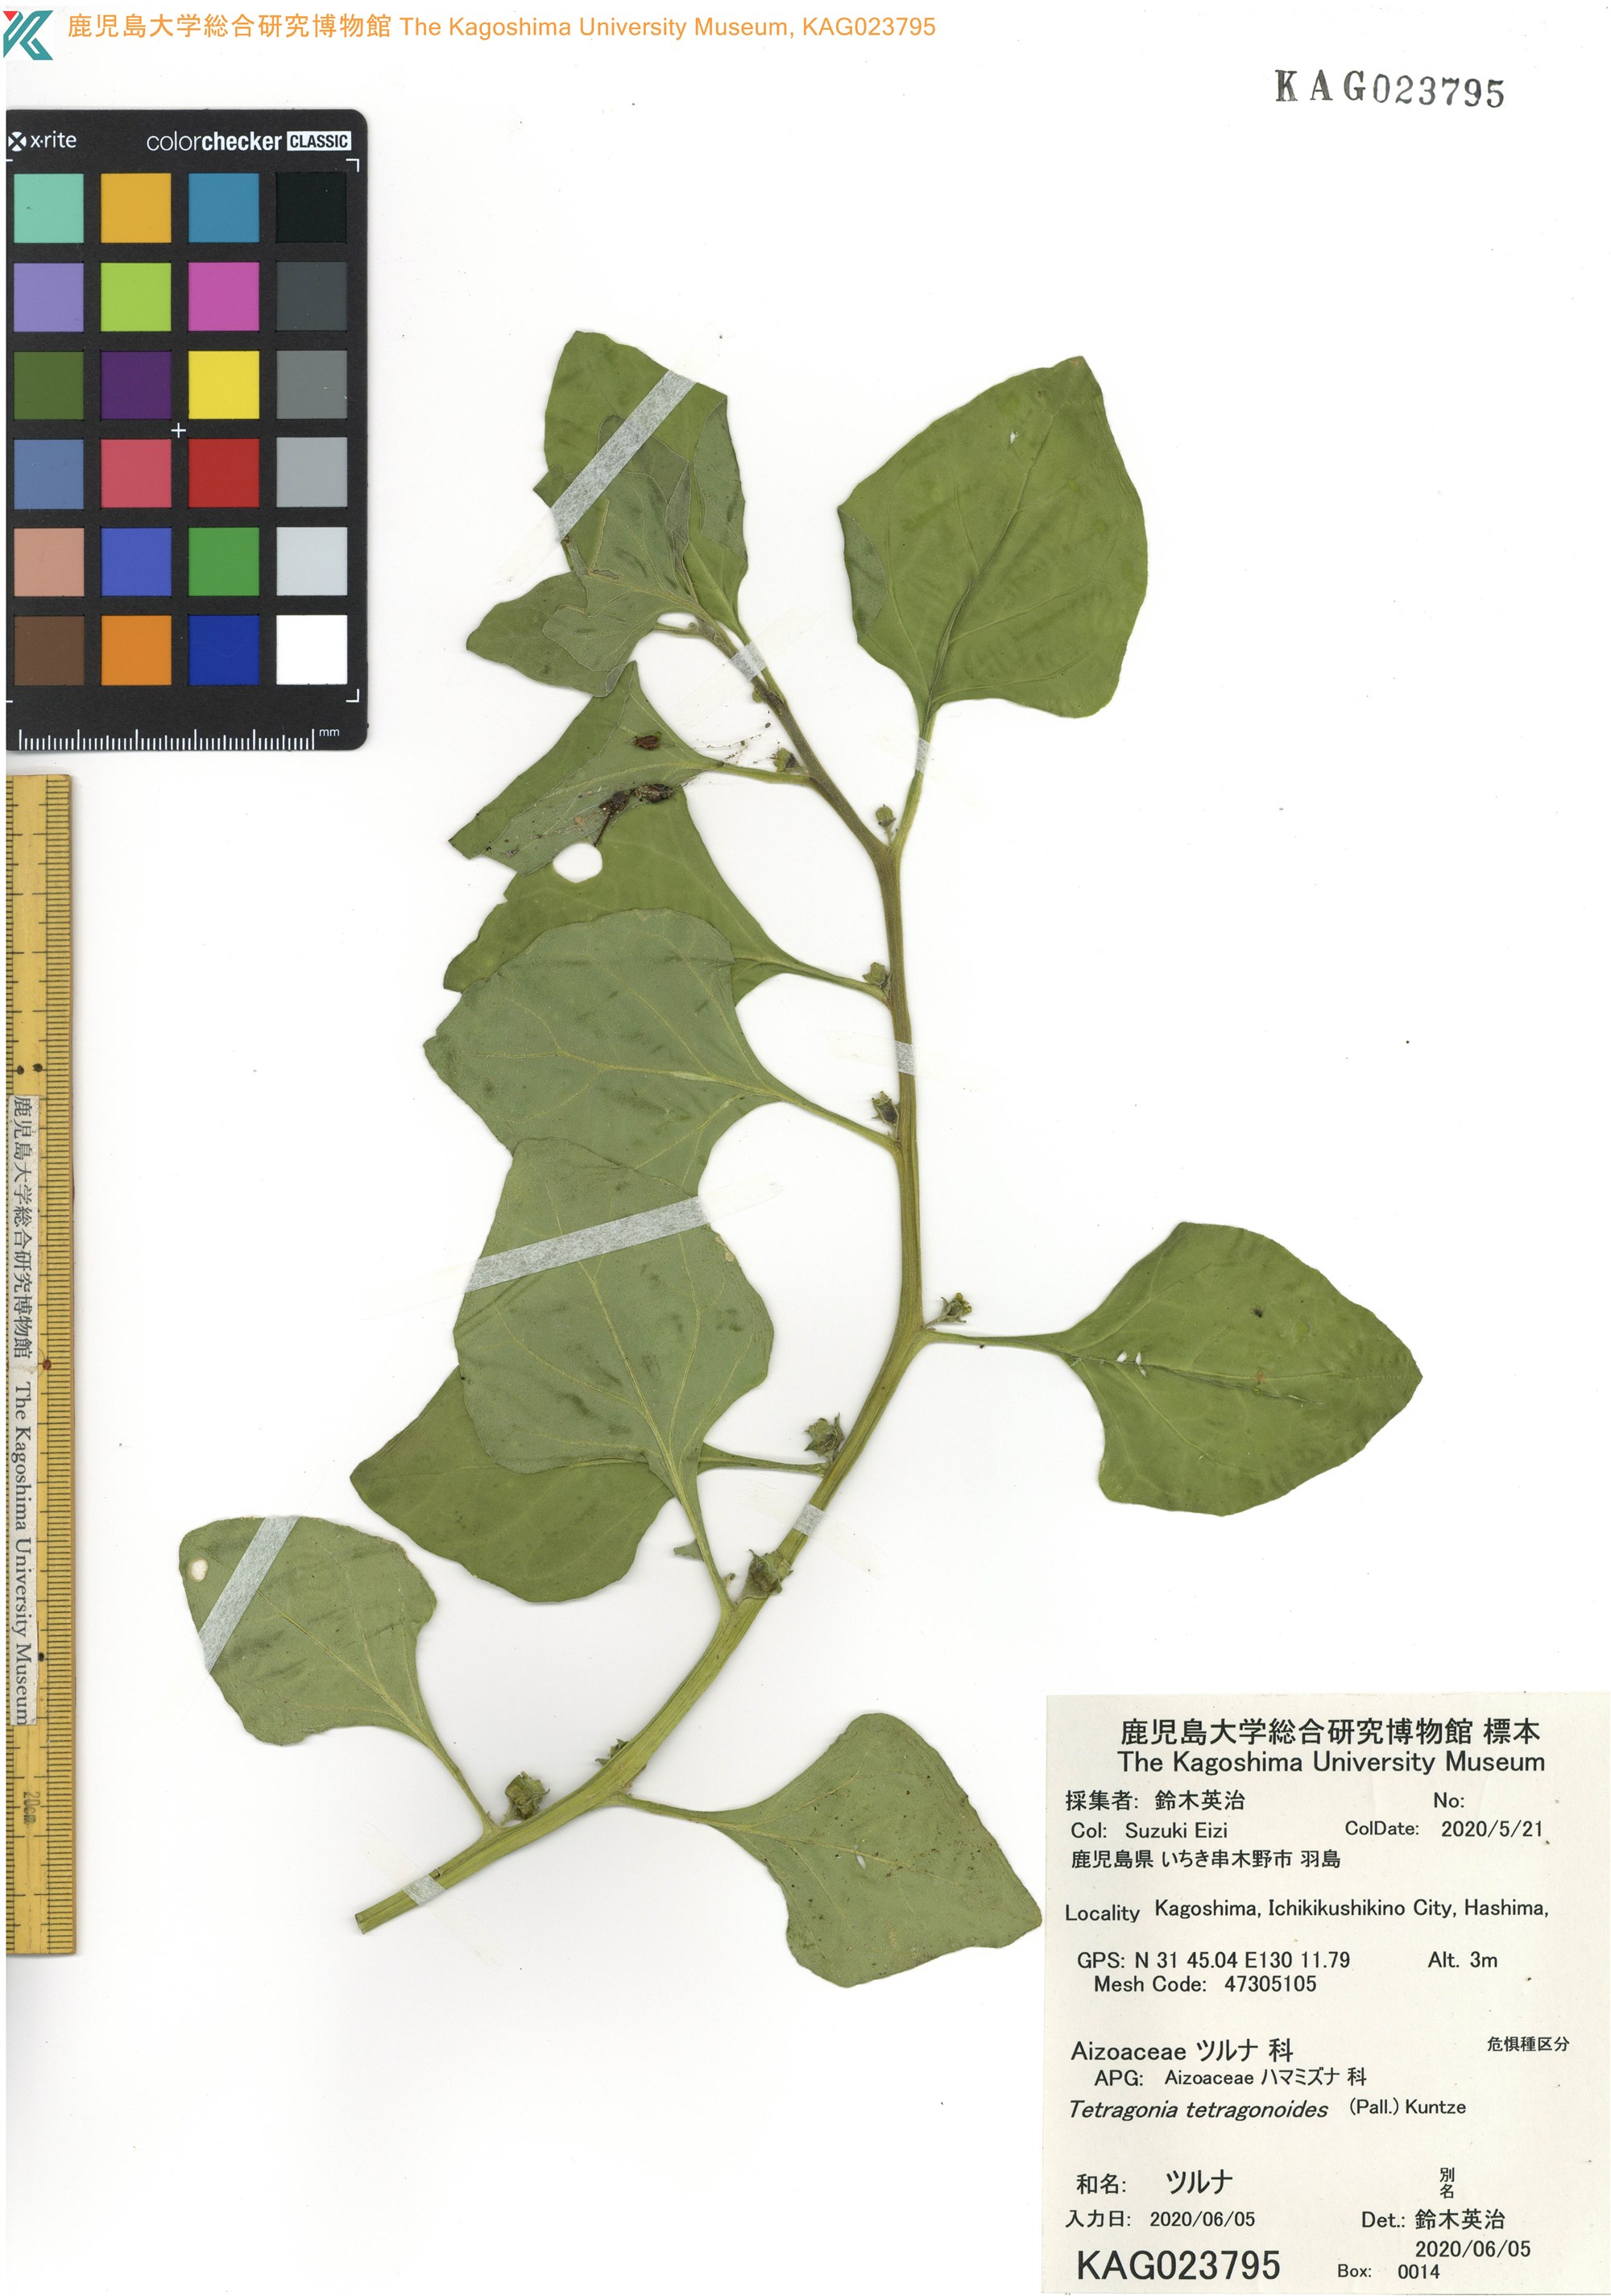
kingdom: Plantae
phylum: Tracheophyta
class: Magnoliopsida
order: Caryophyllales
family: Aizoaceae
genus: Tetragonia
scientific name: Tetragonia tetragonoides
